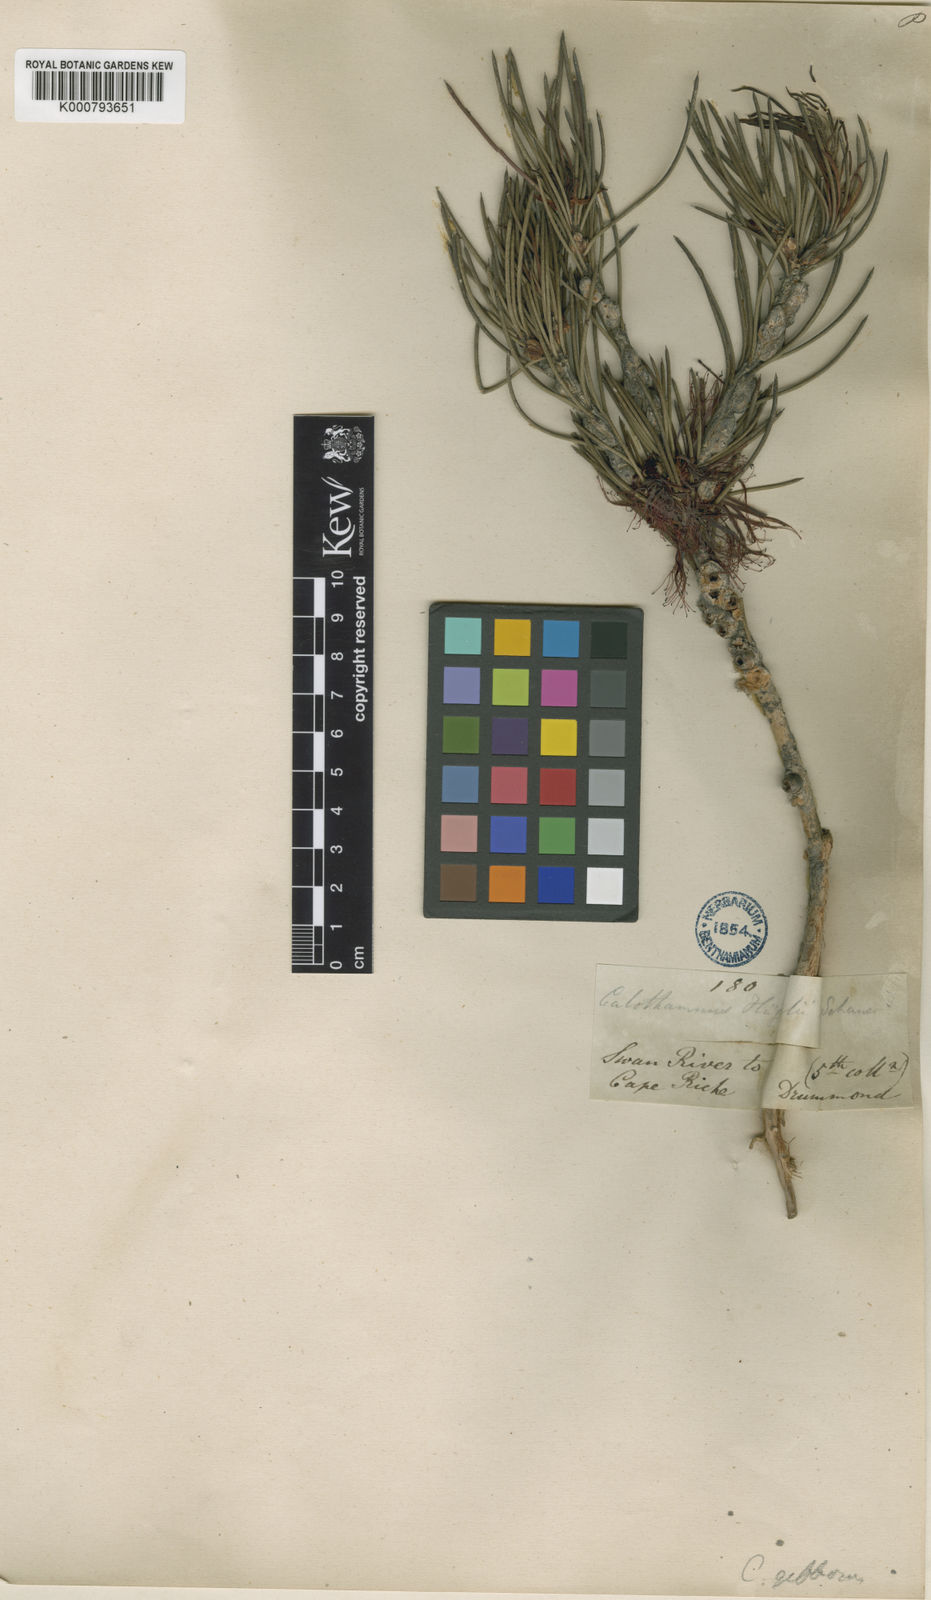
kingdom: Plantae
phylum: Tracheophyta
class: Magnoliopsida
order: Myrtales
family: Myrtaceae
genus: Melaleuca
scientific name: Melaleuca protumida
